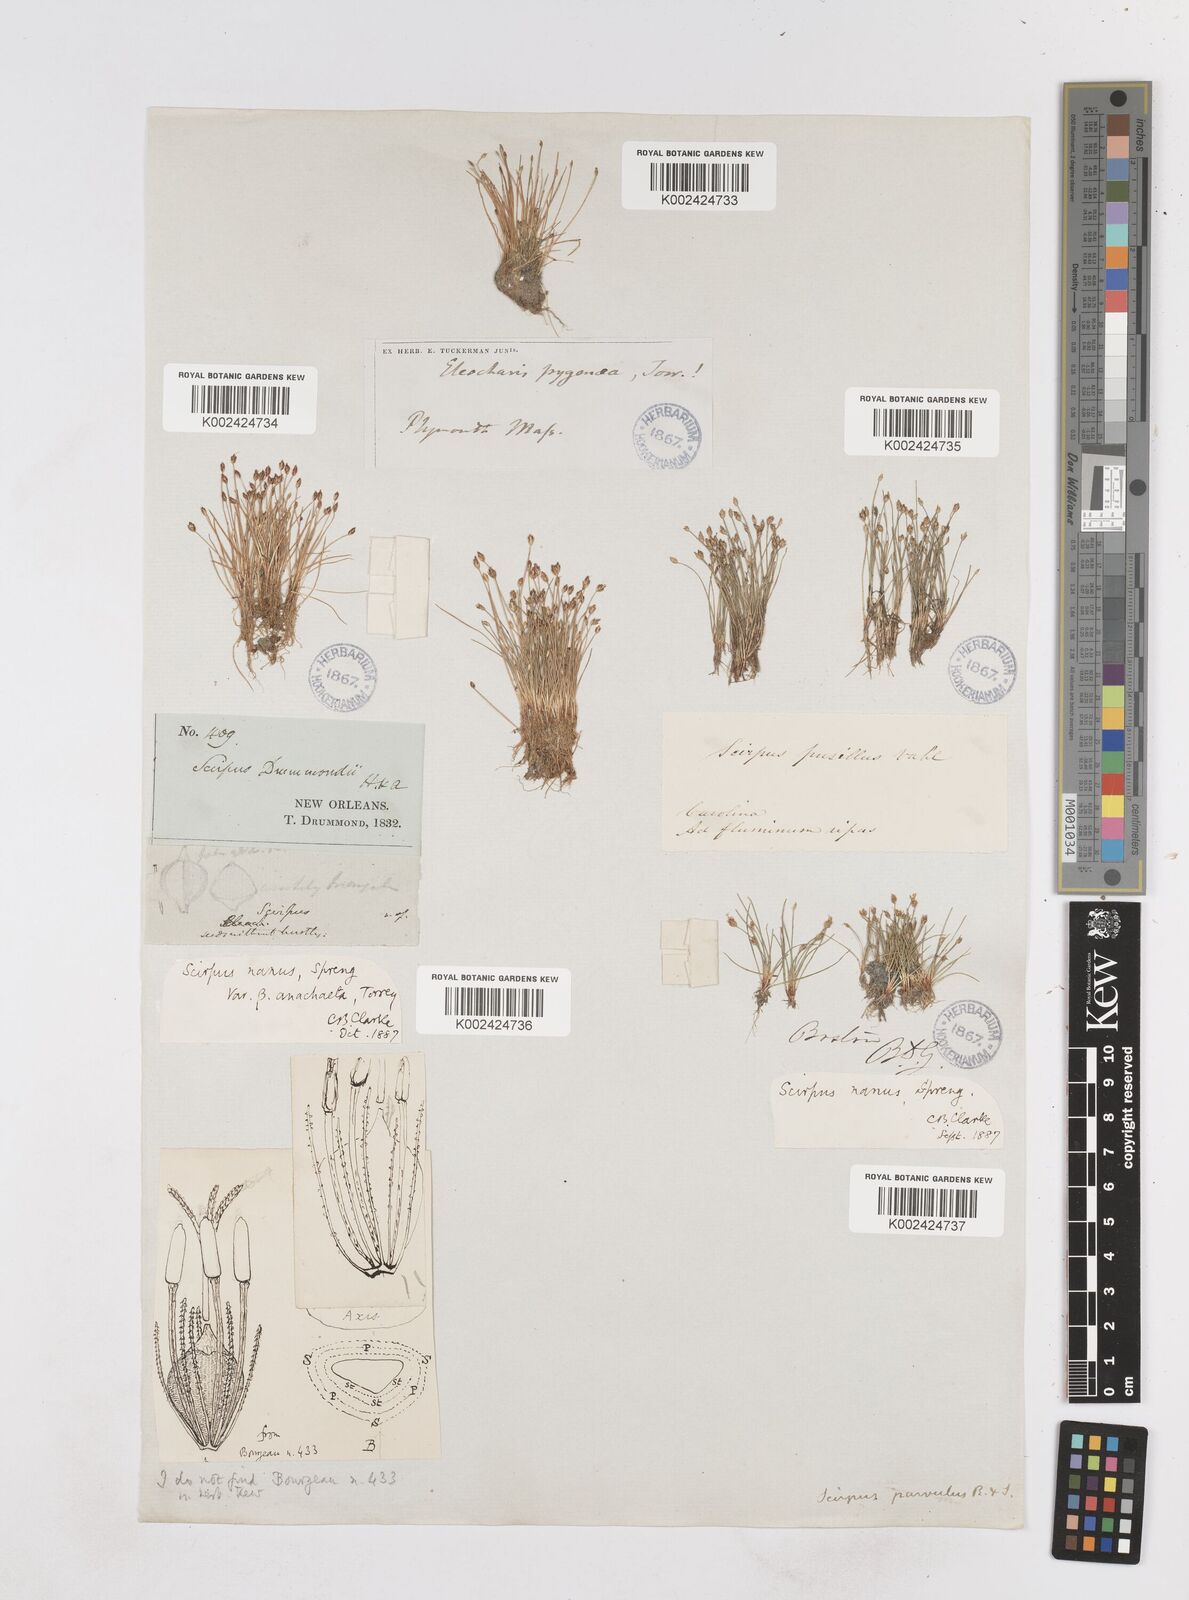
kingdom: Plantae
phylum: Tracheophyta
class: Liliopsida
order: Poales
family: Cyperaceae
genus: Eleocharis
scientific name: Eleocharis parvula
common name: Dwarf spike-rush
